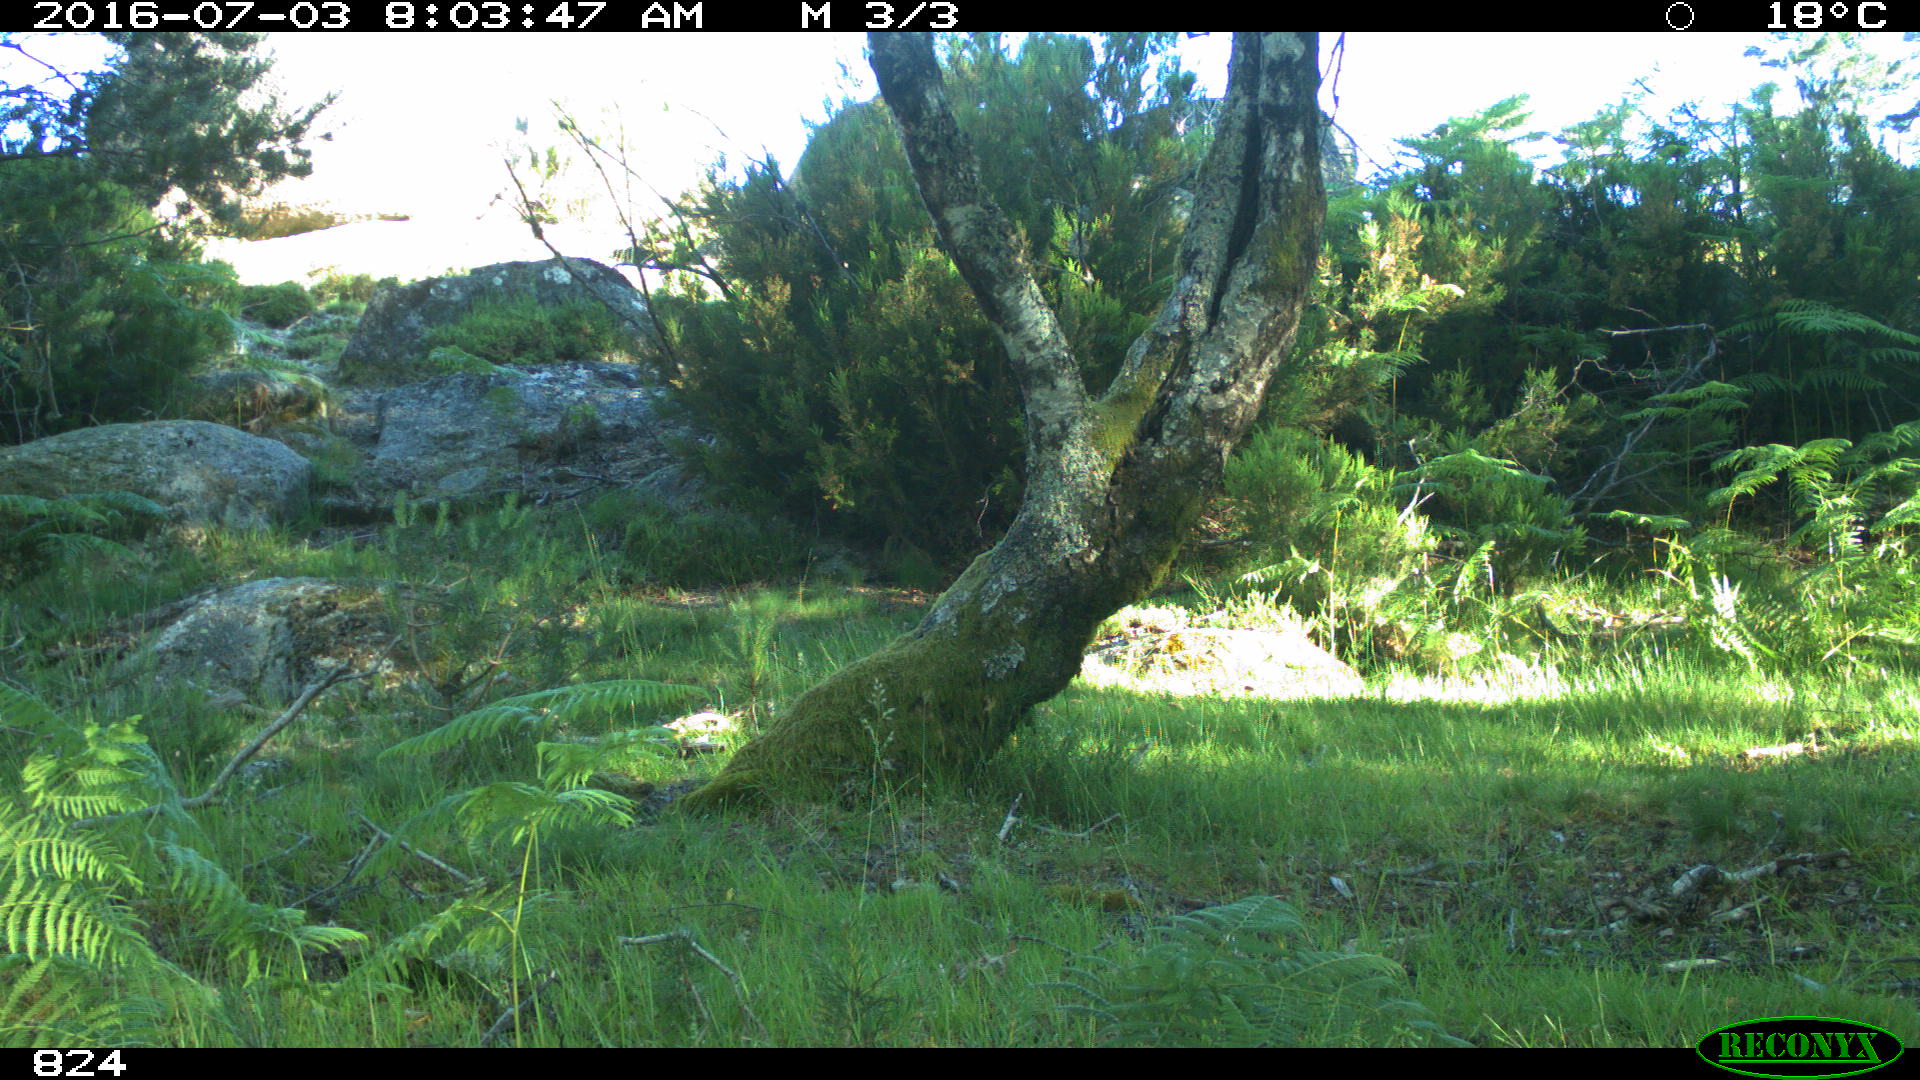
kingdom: Animalia
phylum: Chordata
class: Mammalia
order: Artiodactyla
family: Cervidae
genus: Capreolus
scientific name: Capreolus capreolus
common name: Western roe deer
